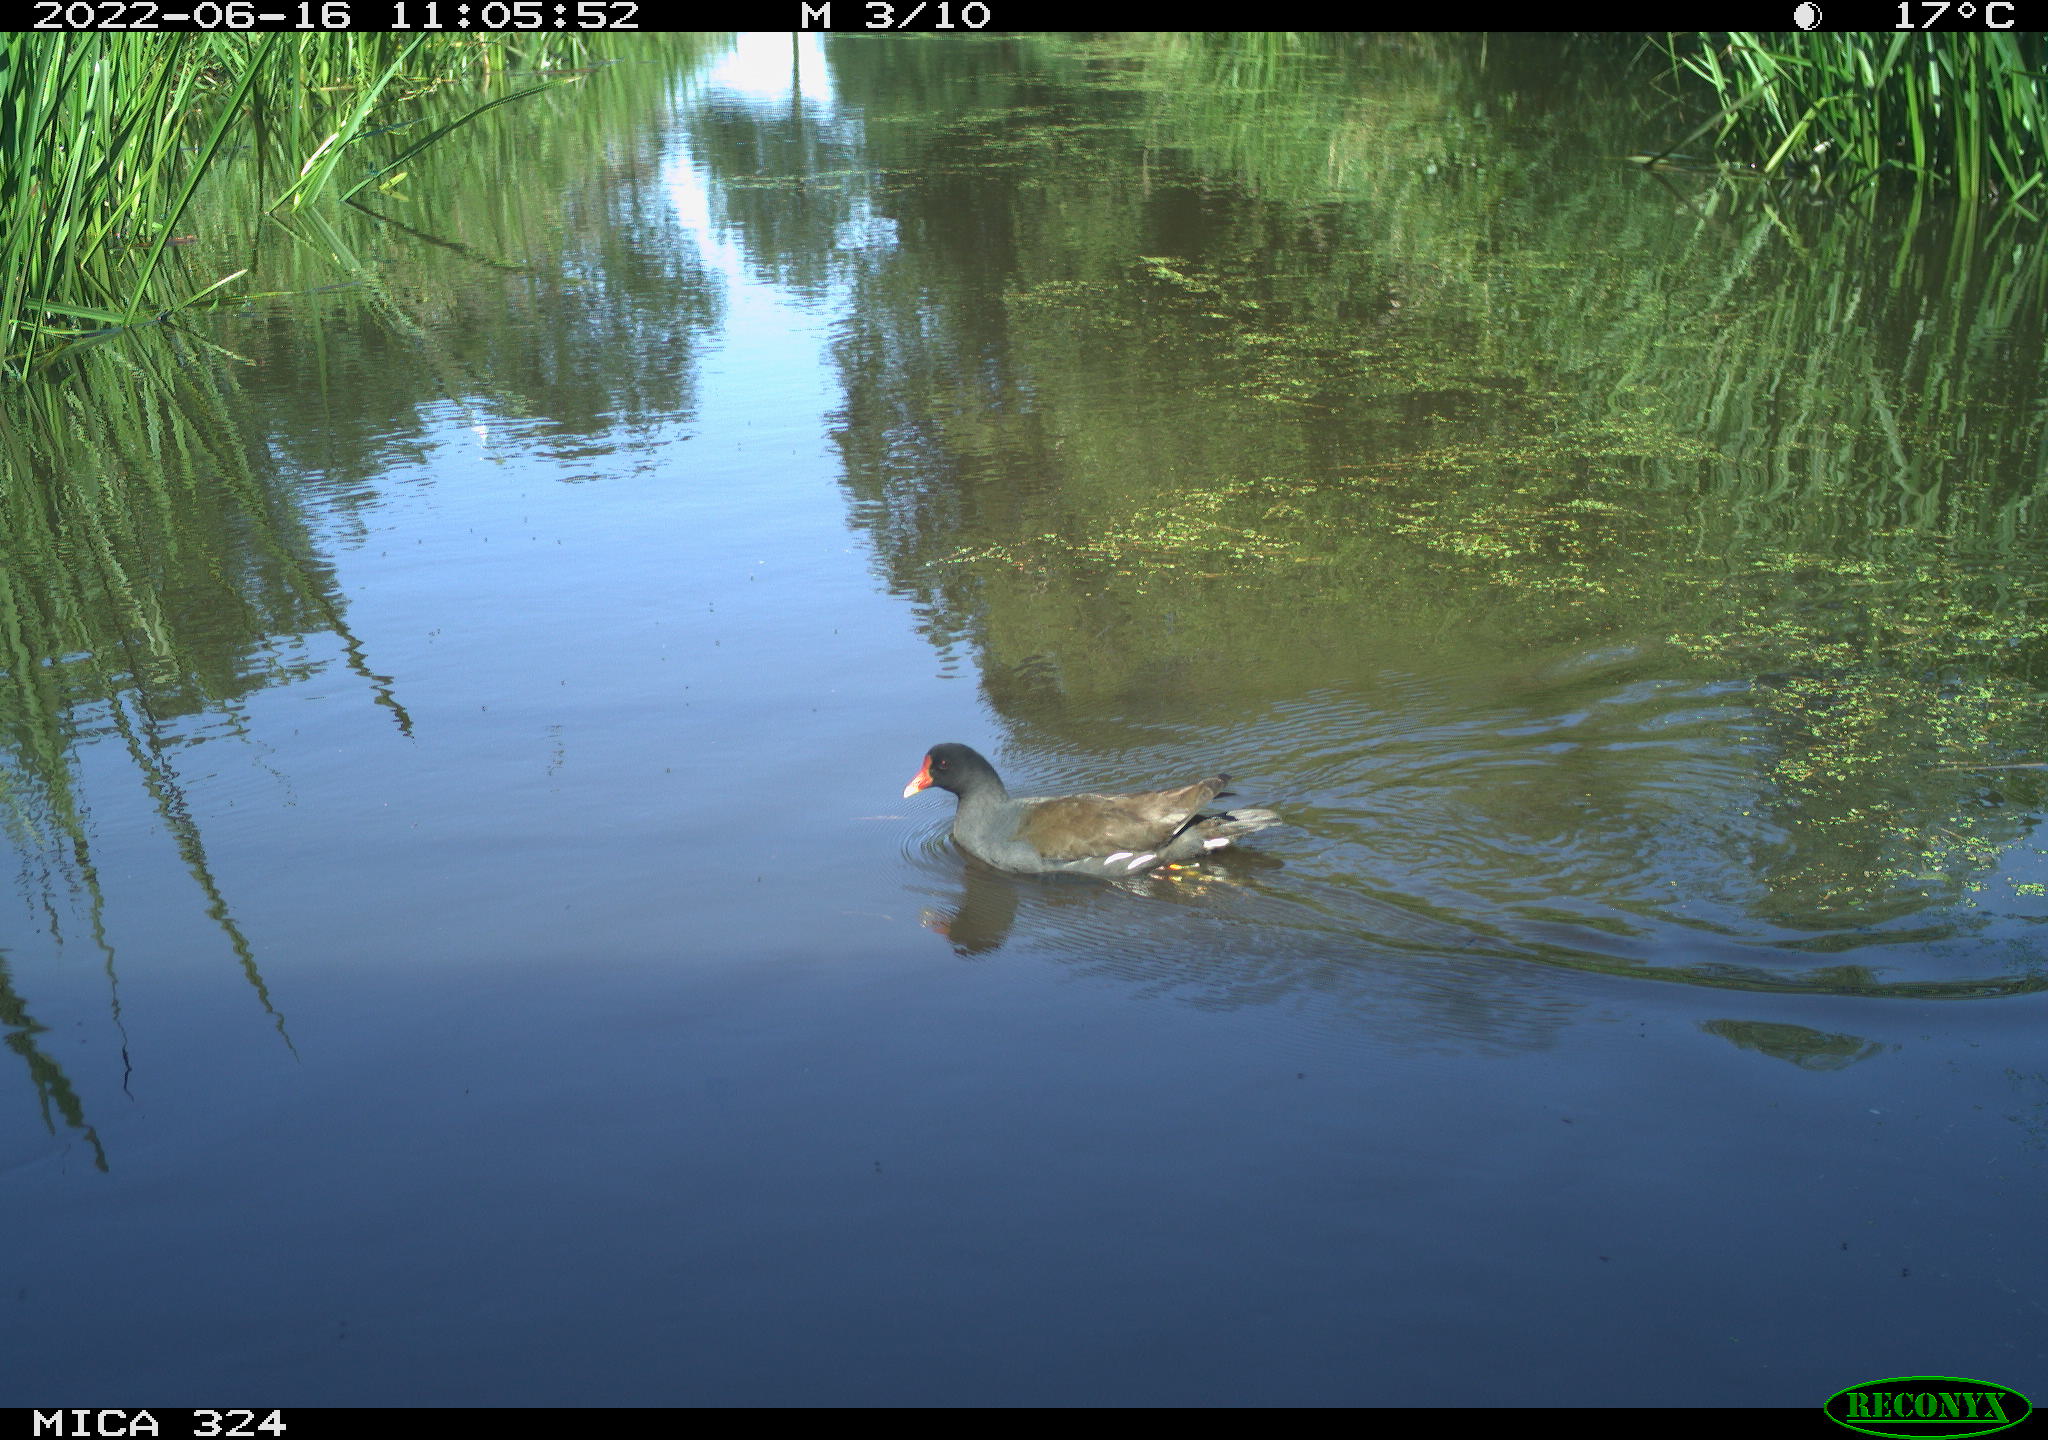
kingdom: Animalia
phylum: Chordata
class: Aves
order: Gruiformes
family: Rallidae
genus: Gallinula
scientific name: Gallinula chloropus
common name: Common moorhen
